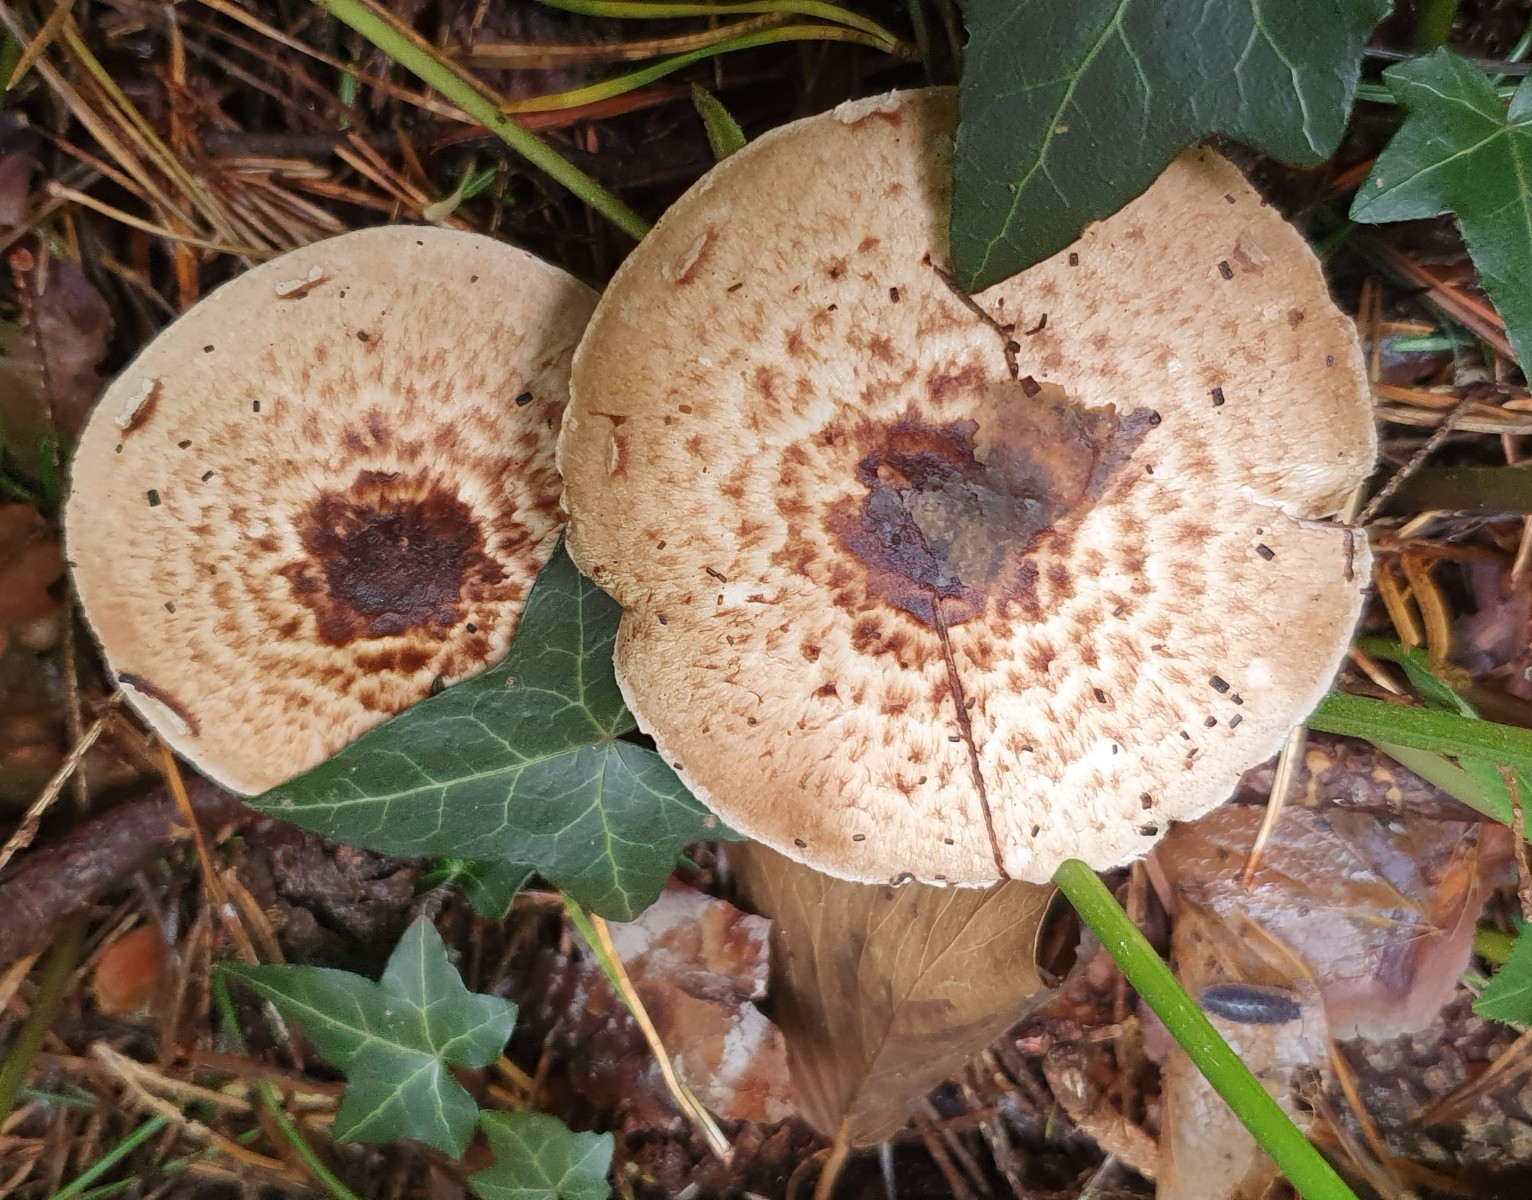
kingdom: Fungi
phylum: Basidiomycota
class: Agaricomycetes
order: Agaricales
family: Agaricaceae
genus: Agaricus
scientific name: Agaricus impudicus
